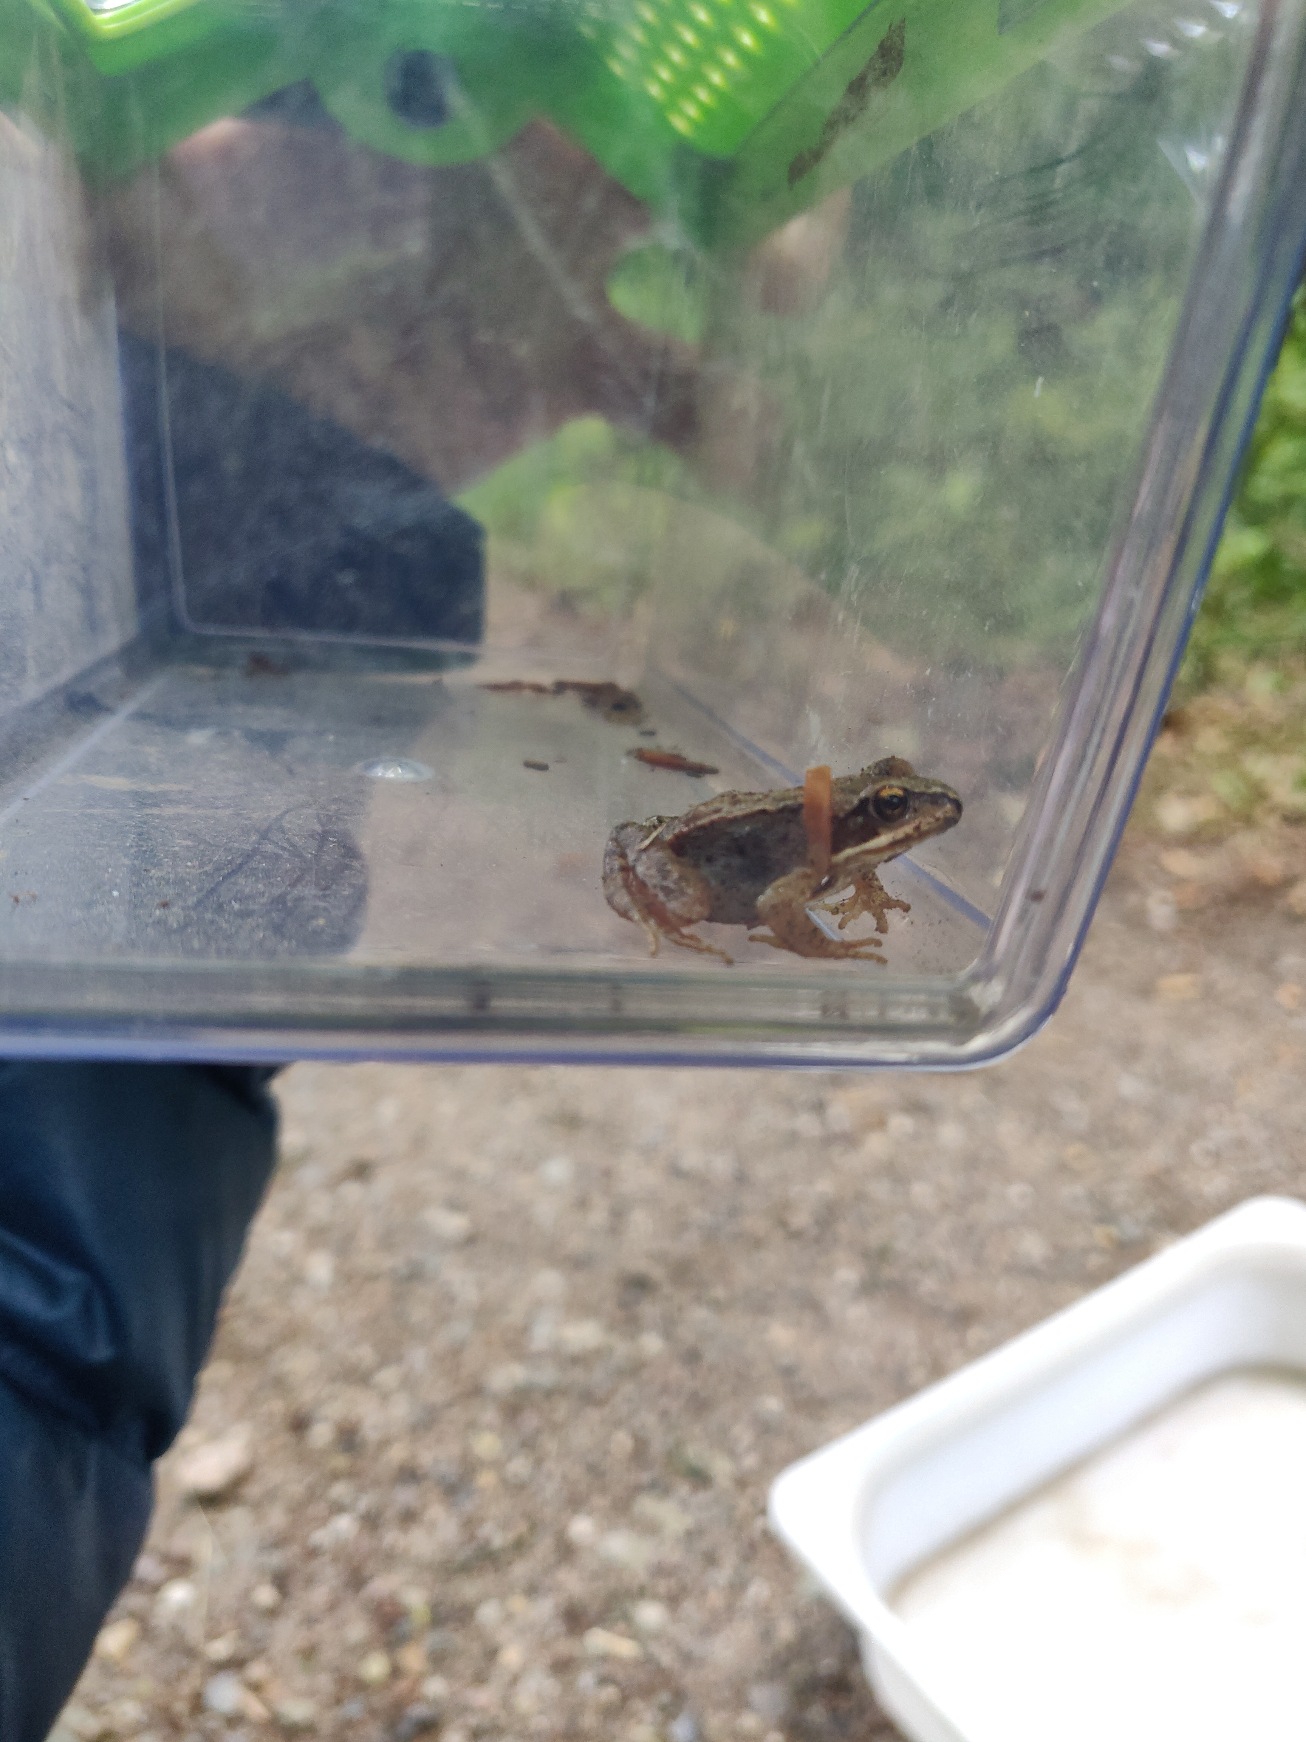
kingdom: Animalia
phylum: Chordata
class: Amphibia
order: Anura
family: Ranidae
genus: Rana
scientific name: Rana temporaria
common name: Butsnudet frø
